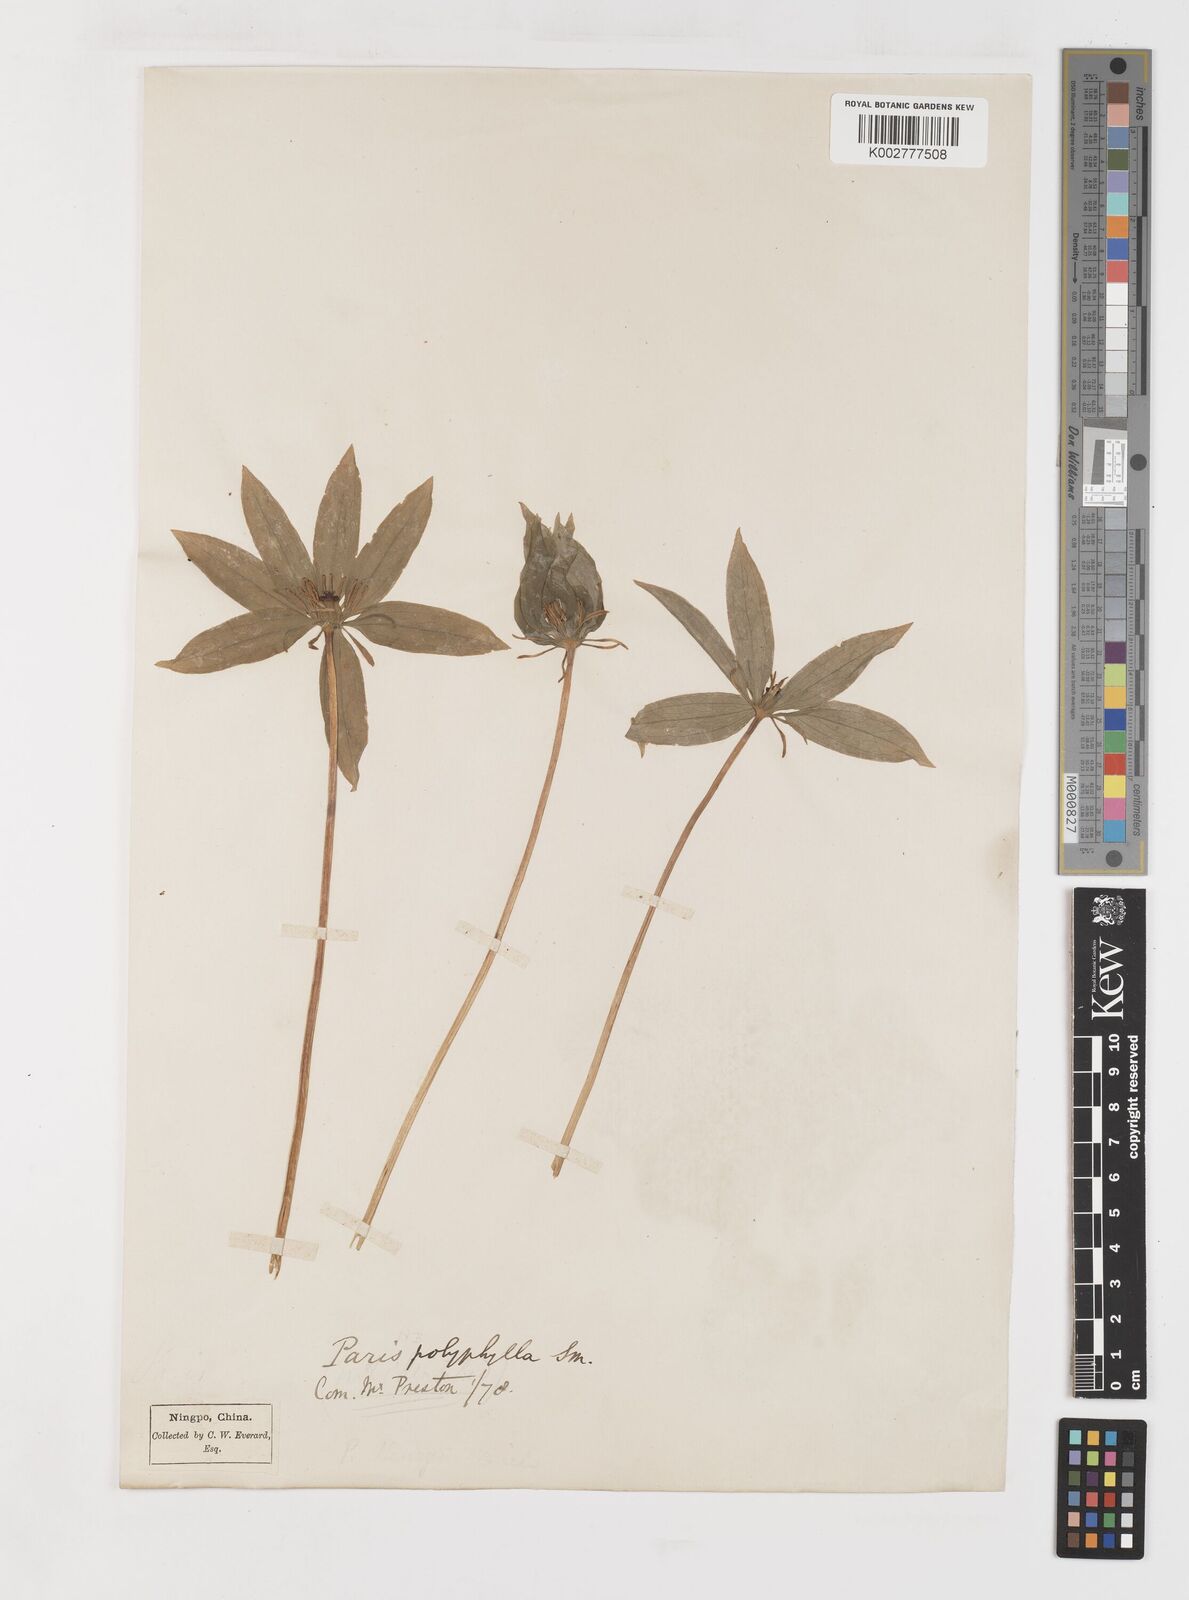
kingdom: Plantae
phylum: Tracheophyta
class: Liliopsida
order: Liliales
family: Melanthiaceae
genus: Paris
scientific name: Paris delavayi
